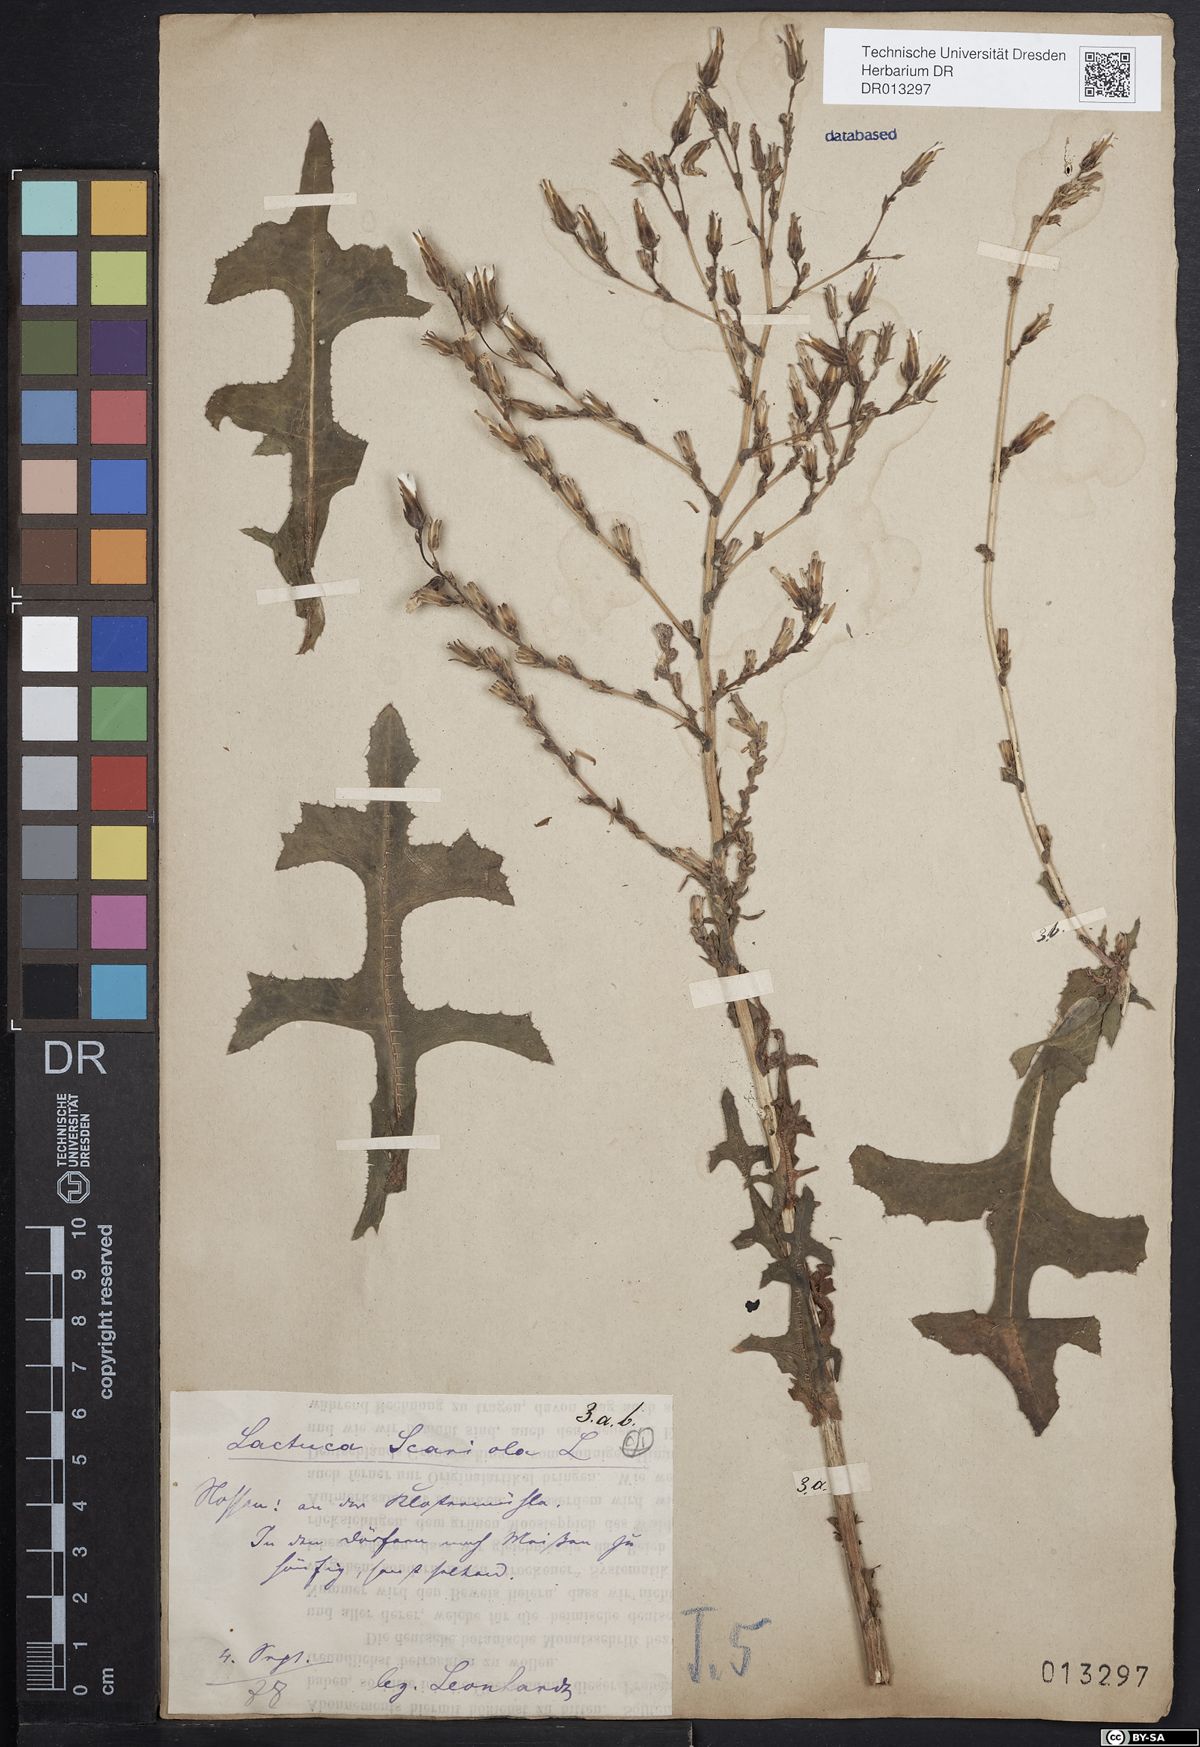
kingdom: Plantae
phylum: Tracheophyta
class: Magnoliopsida
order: Asterales
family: Asteraceae
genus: Lactuca
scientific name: Lactuca serriola
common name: Prickly lettuce
